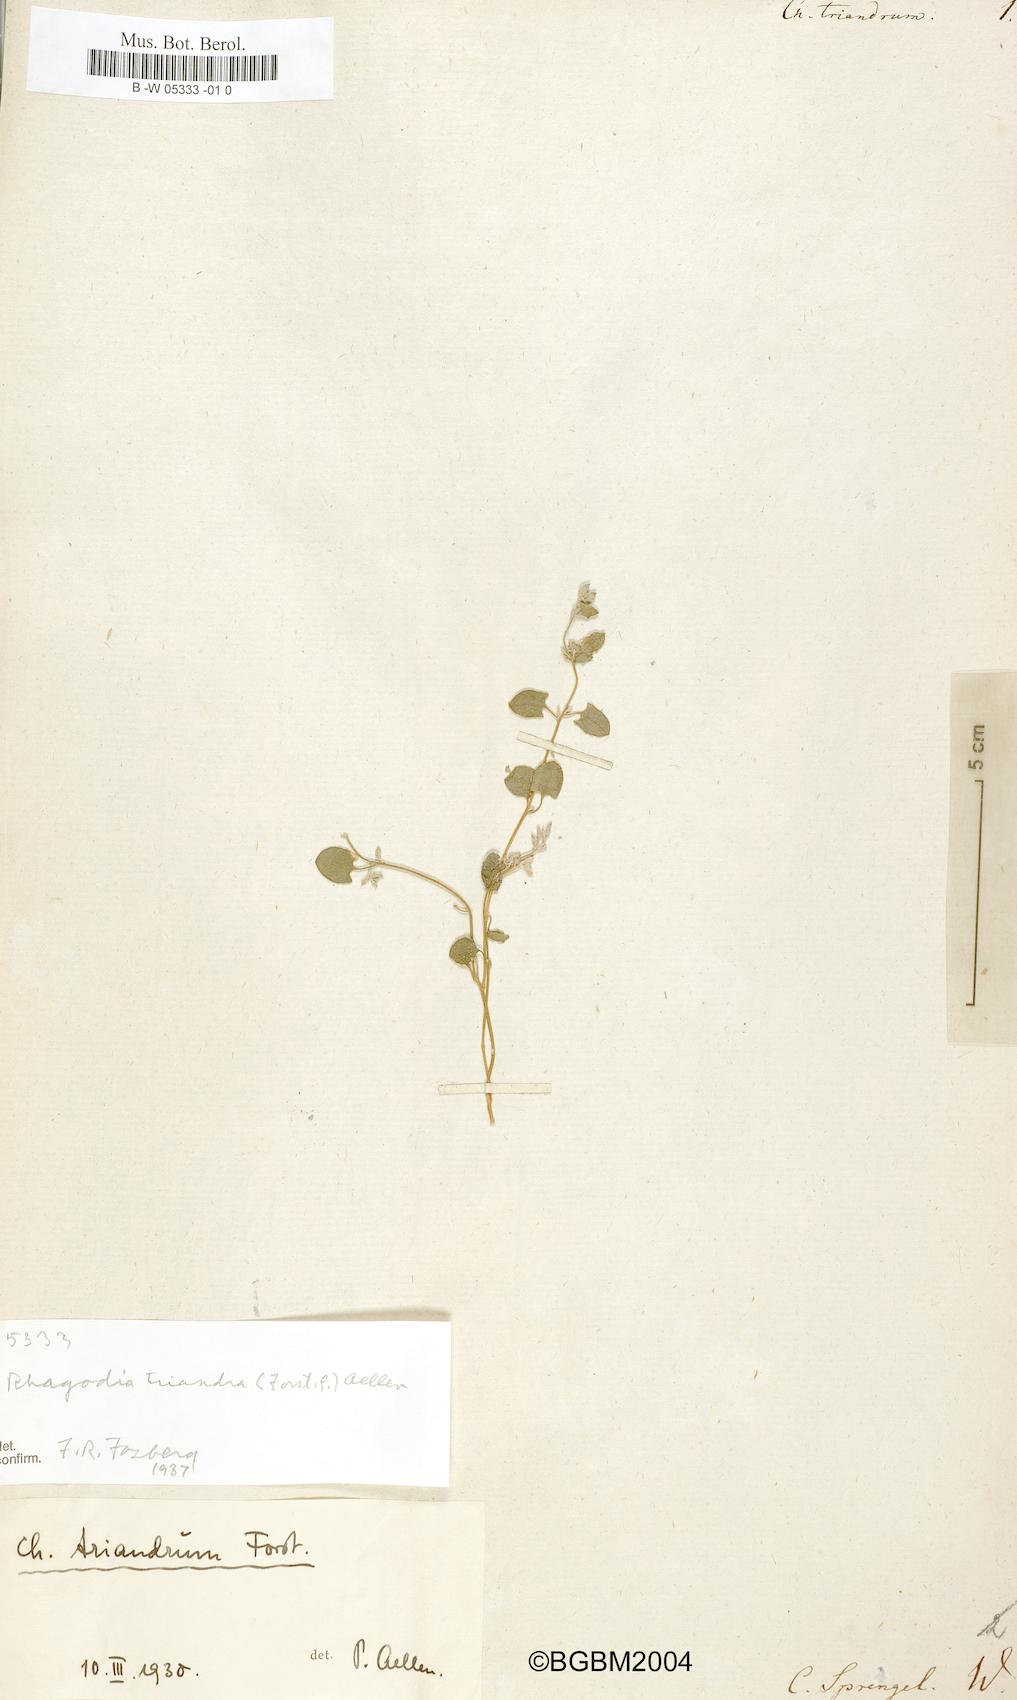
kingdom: Plantae
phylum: Tracheophyta
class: Magnoliopsida
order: Caryophyllales
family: Amaranthaceae
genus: Chenopodium
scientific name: Chenopodium triandrum
